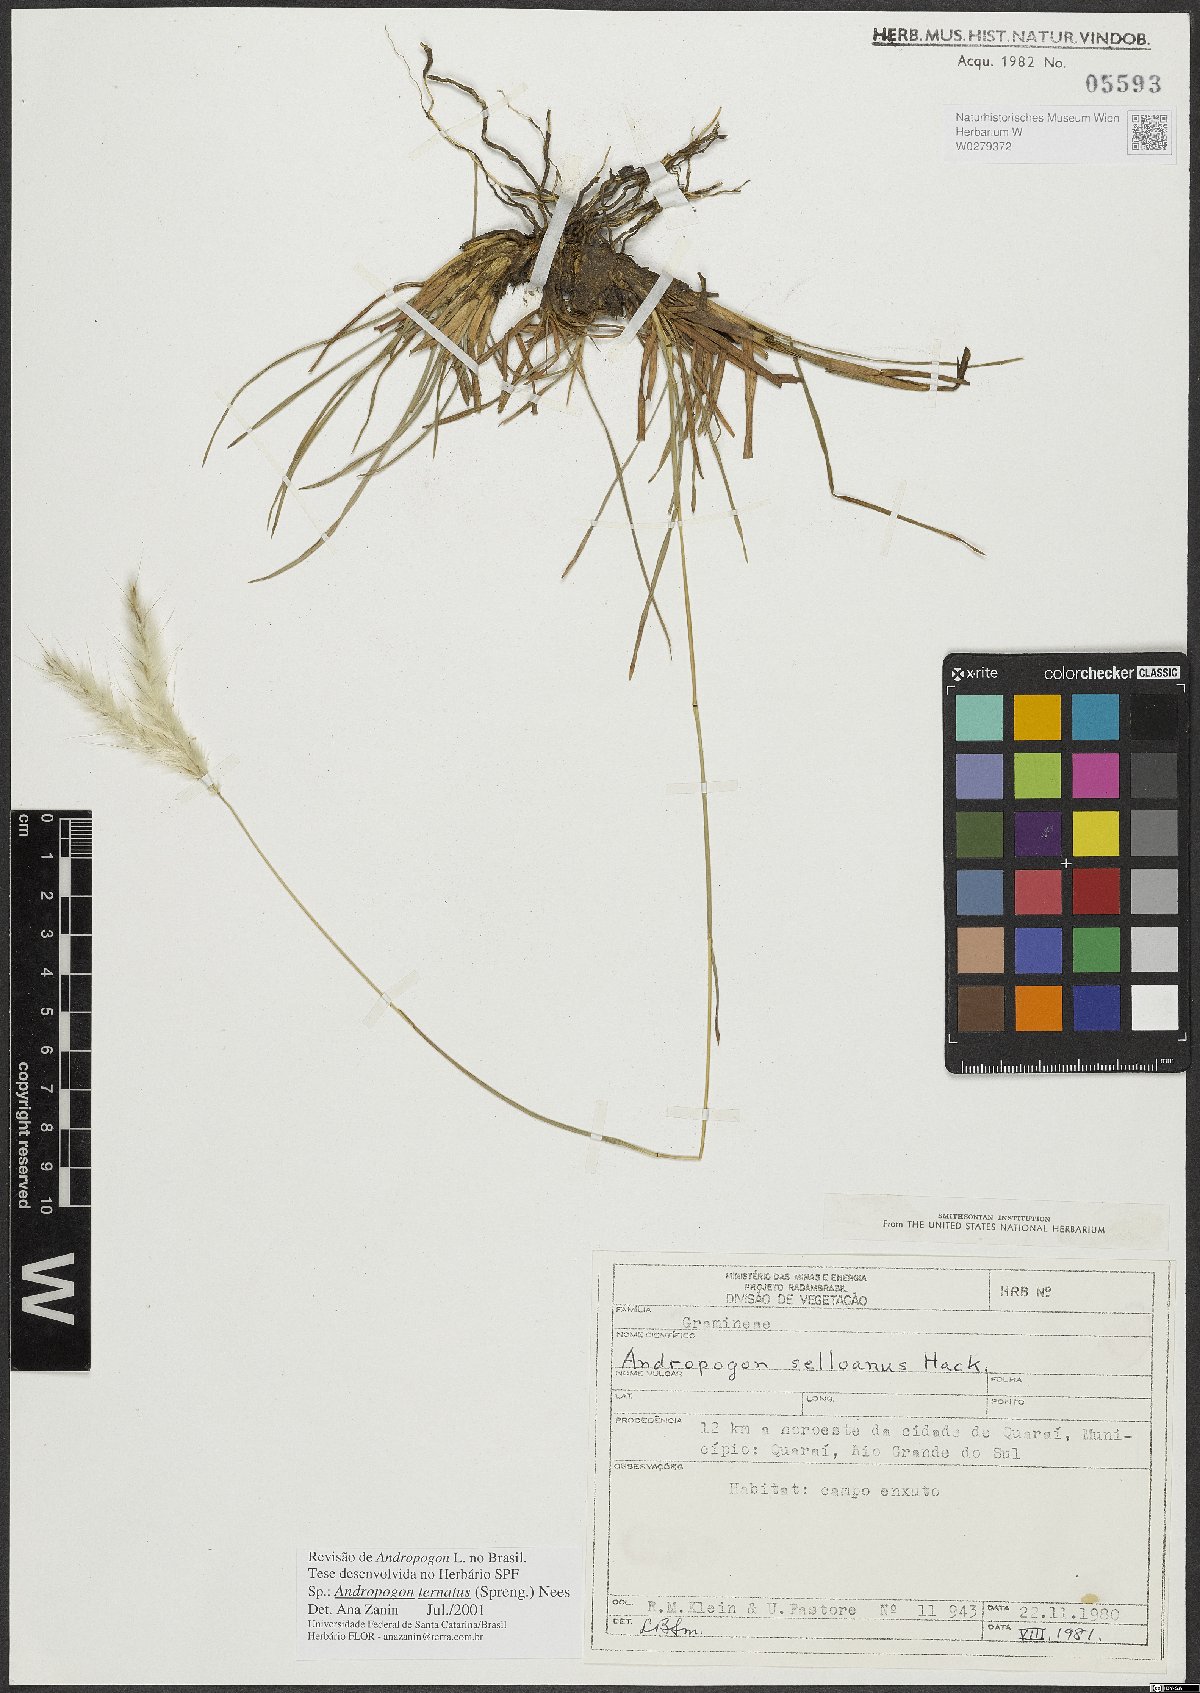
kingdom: Plantae
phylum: Tracheophyta
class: Liliopsida
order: Poales
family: Poaceae
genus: Andropogon
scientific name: Andropogon ternatus
